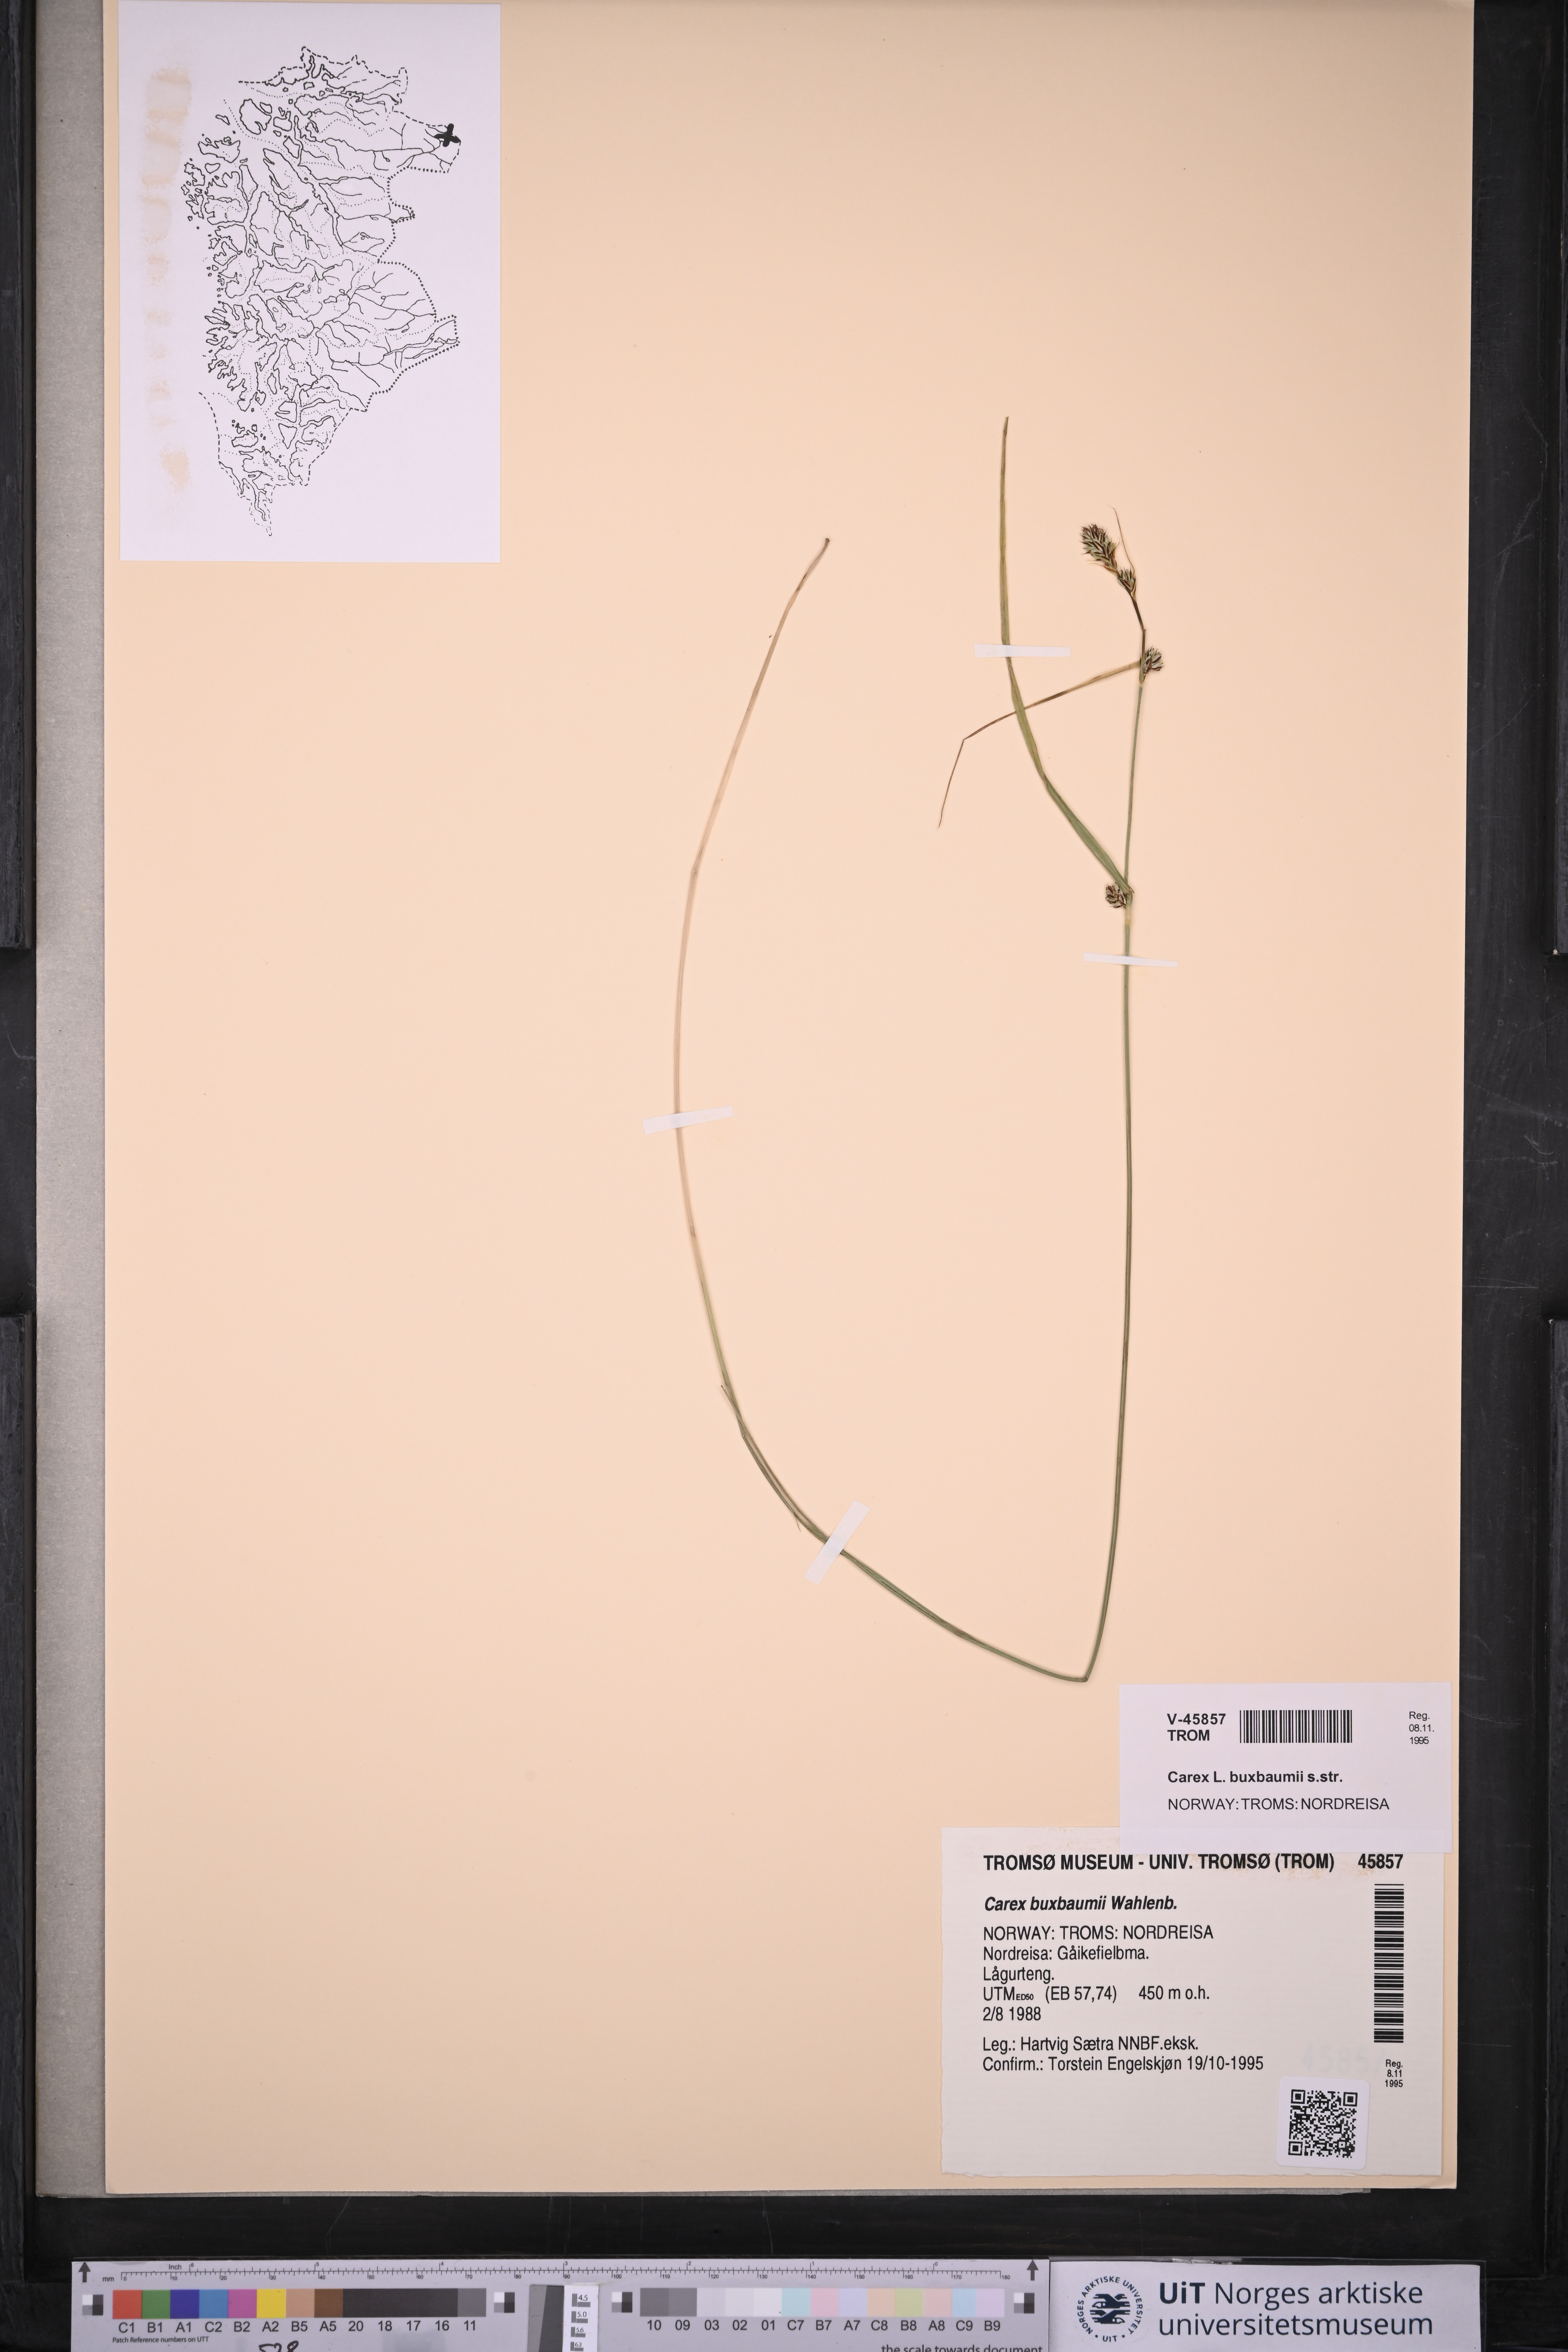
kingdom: Plantae
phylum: Tracheophyta
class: Liliopsida
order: Poales
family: Cyperaceae
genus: Carex
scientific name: Carex buxbaumii
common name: Club sedge
